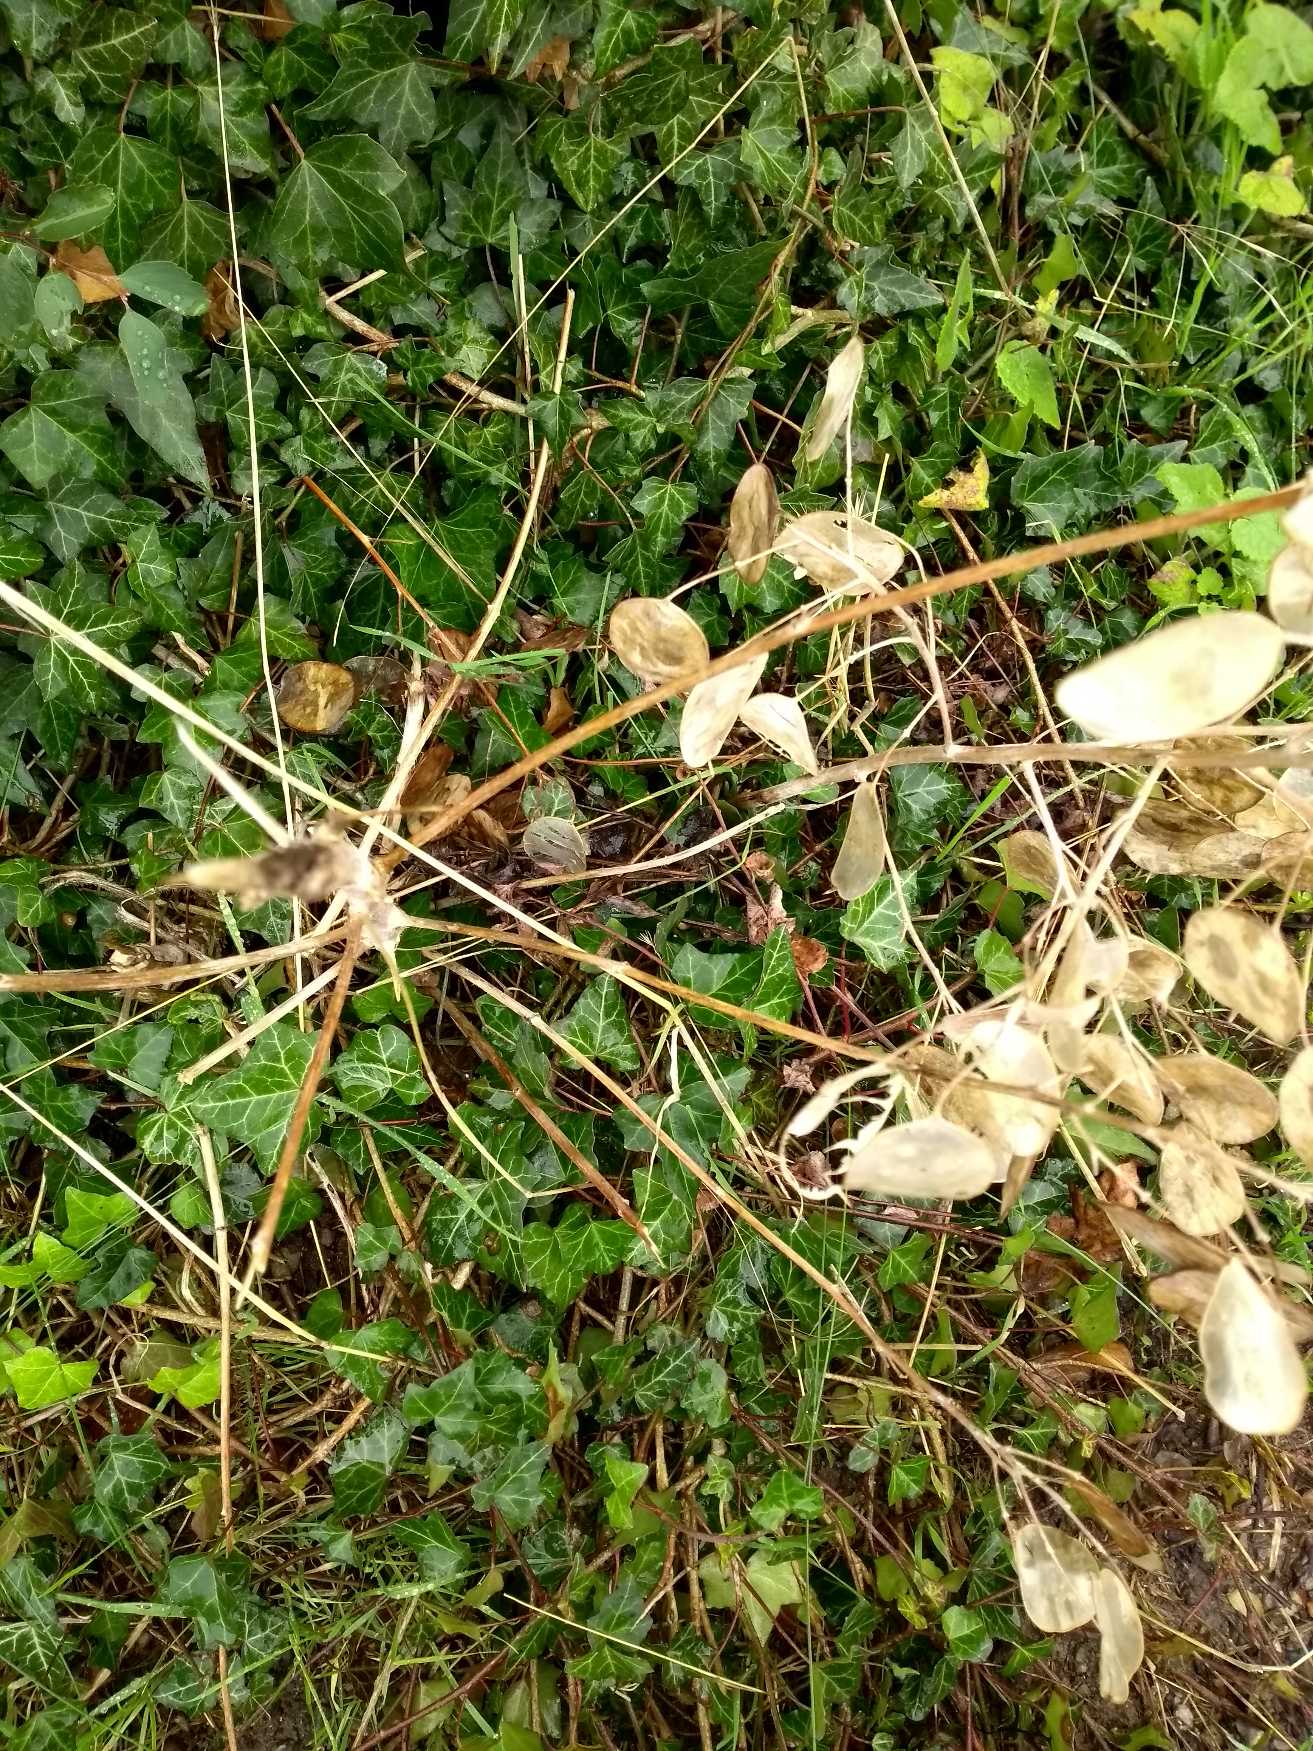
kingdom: Plantae
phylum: Tracheophyta
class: Magnoliopsida
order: Brassicales
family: Brassicaceae
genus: Lunaria
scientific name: Lunaria annua
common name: Judaspenge
